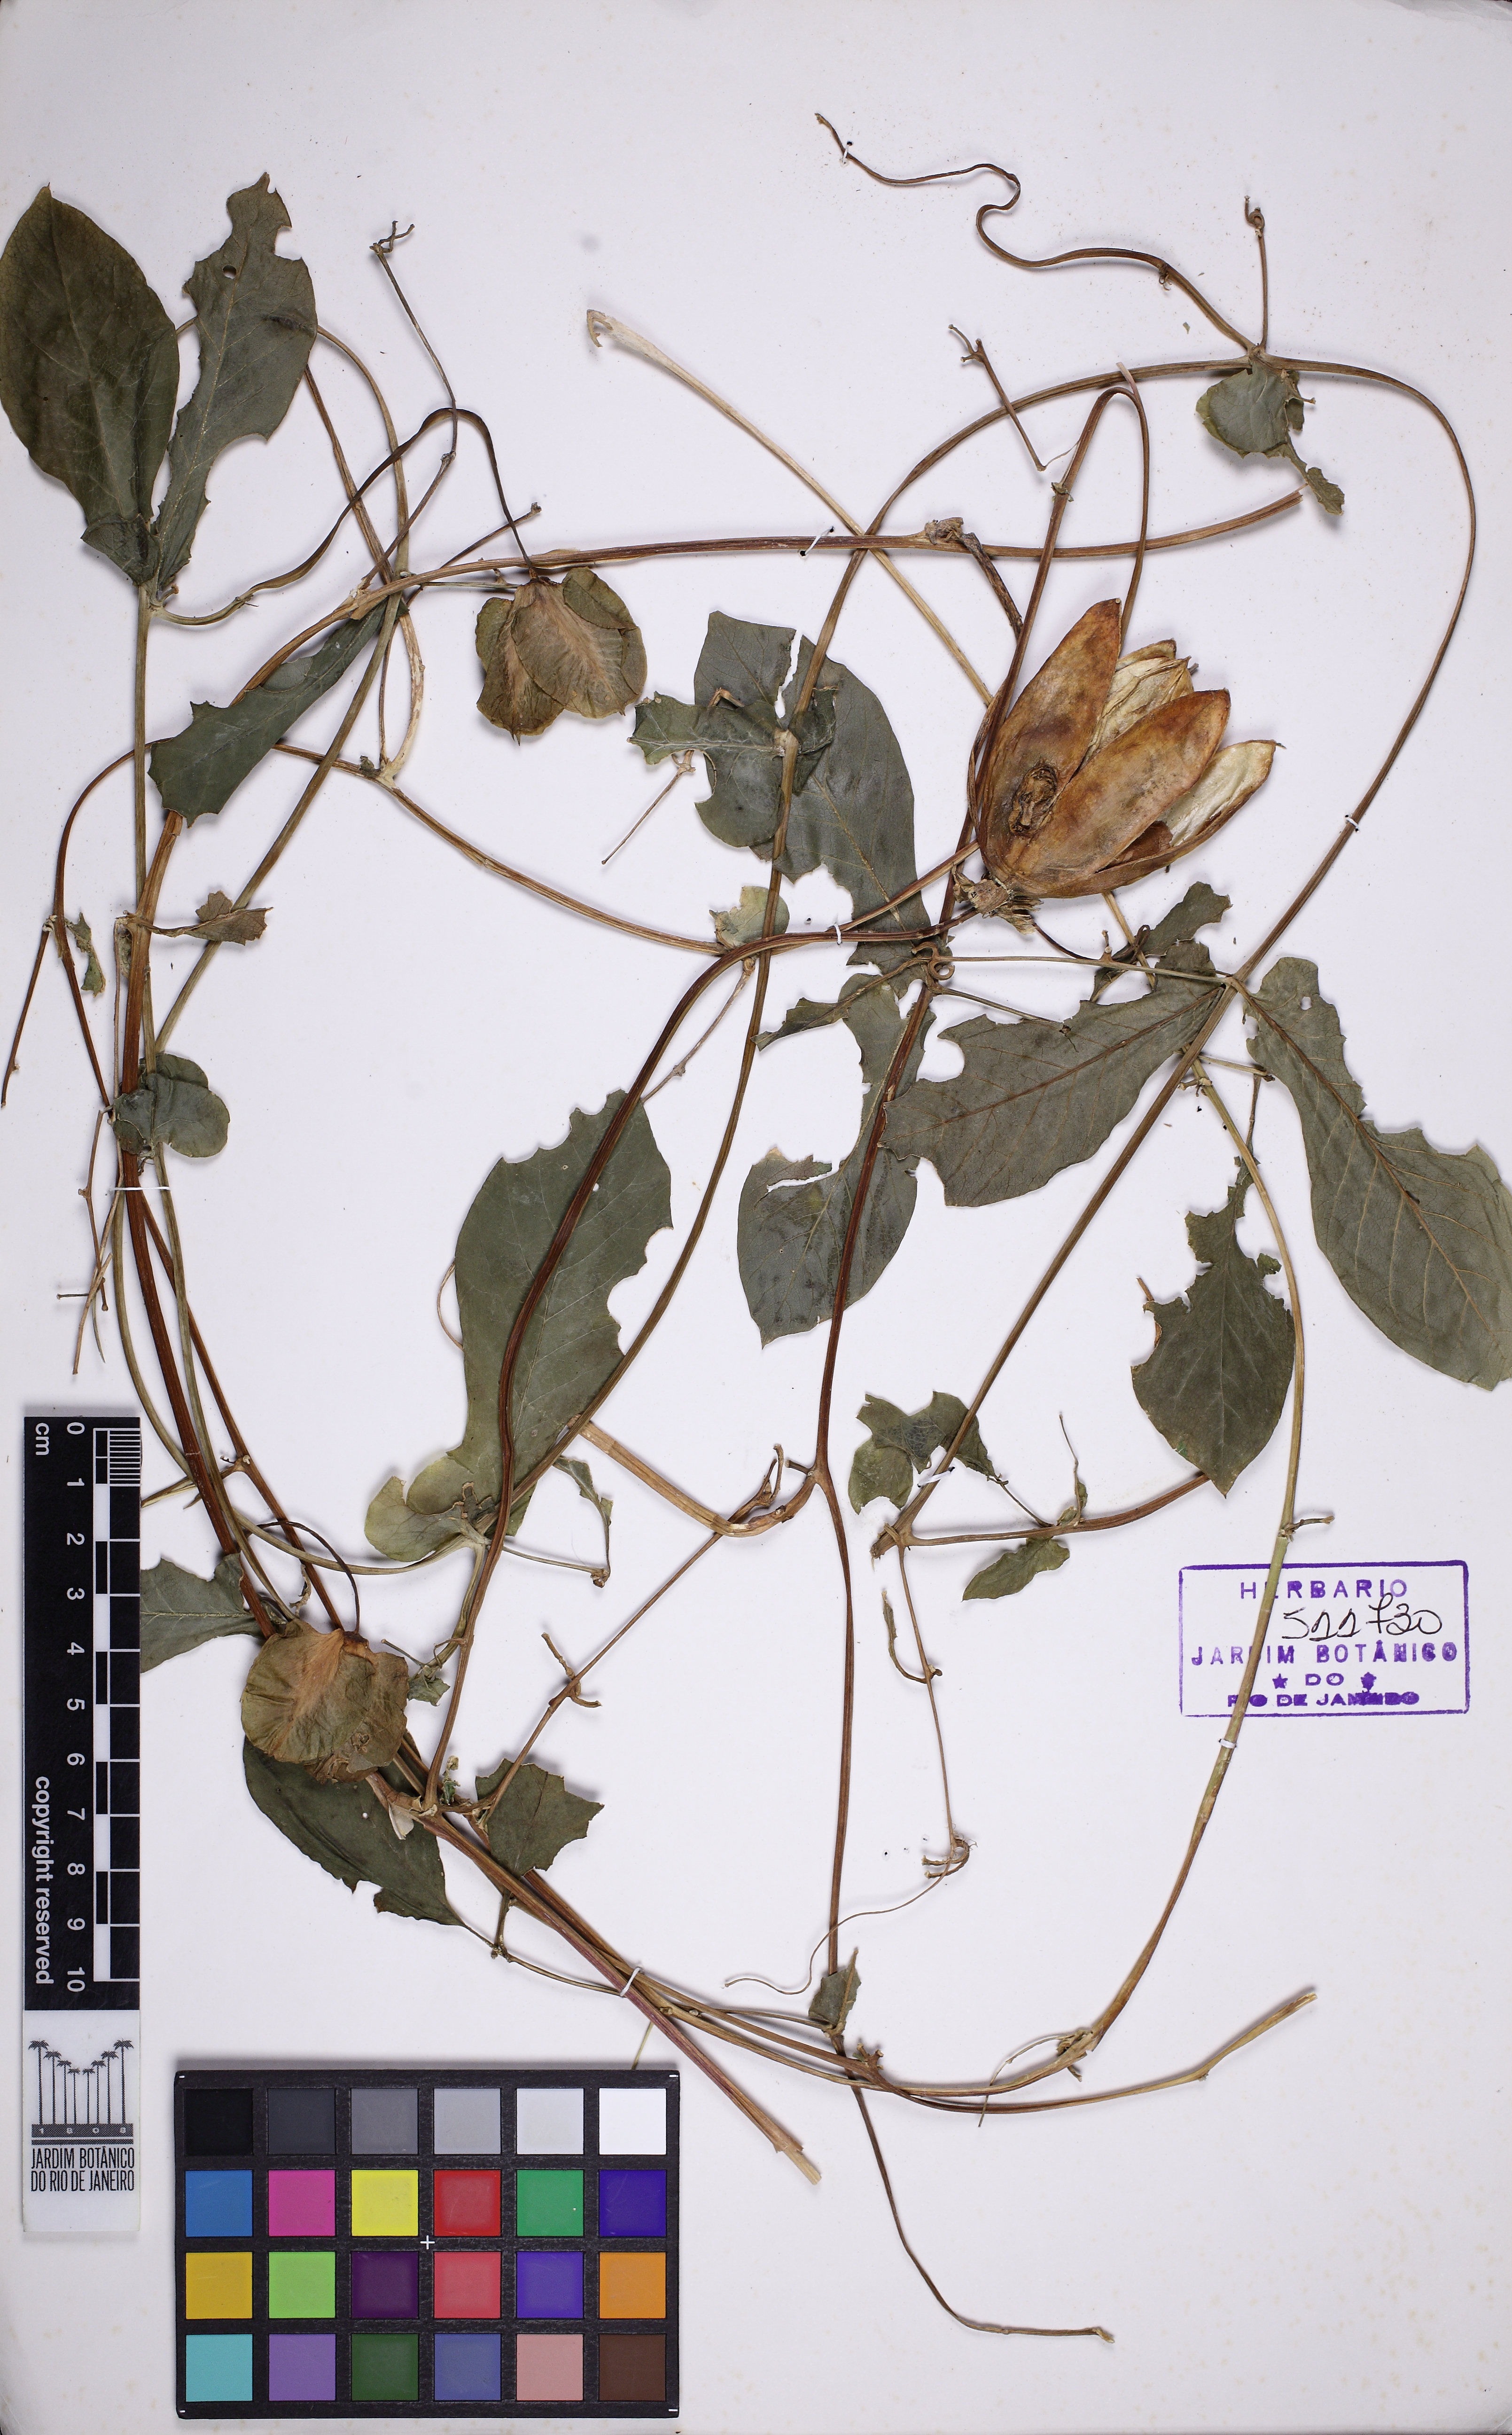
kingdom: Plantae
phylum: Tracheophyta
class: Magnoliopsida
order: Ericales
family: Polemoniaceae
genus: Cobaea
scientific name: Cobaea scandens
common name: Cup-and-saucer-vine
